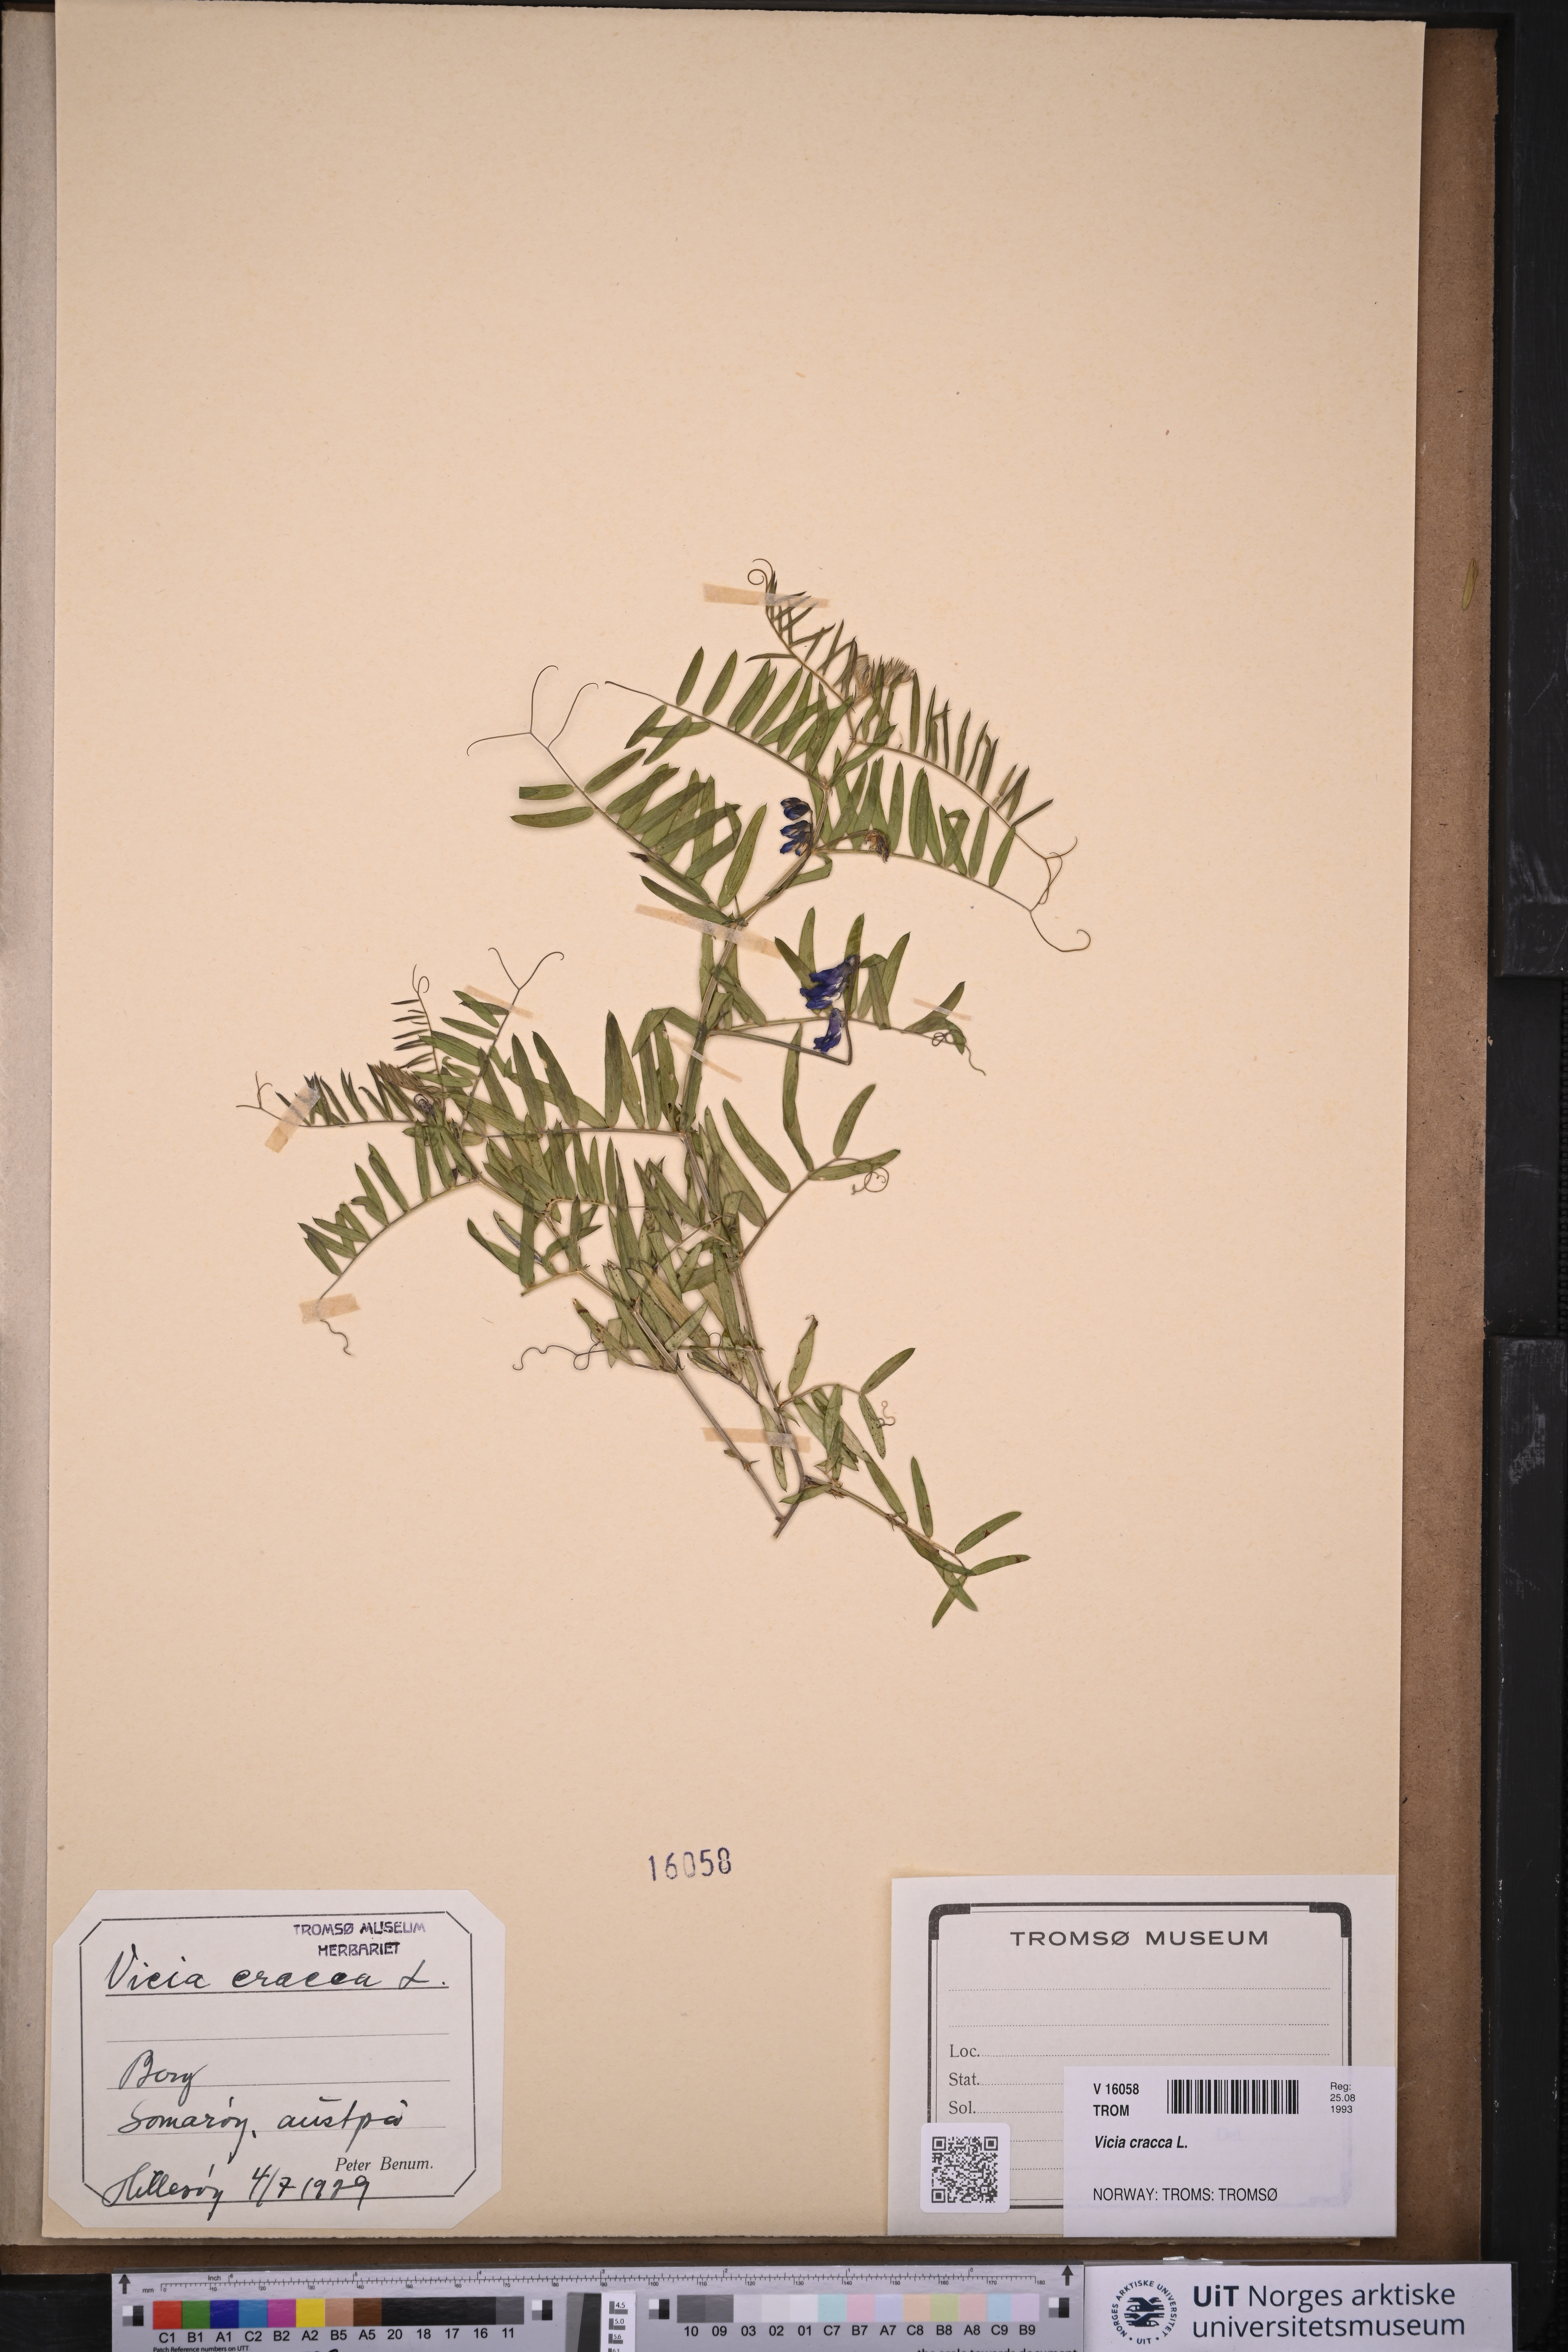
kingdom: Plantae
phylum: Tracheophyta
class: Magnoliopsida
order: Fabales
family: Fabaceae
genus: Vicia
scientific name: Vicia cracca
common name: Bird vetch
